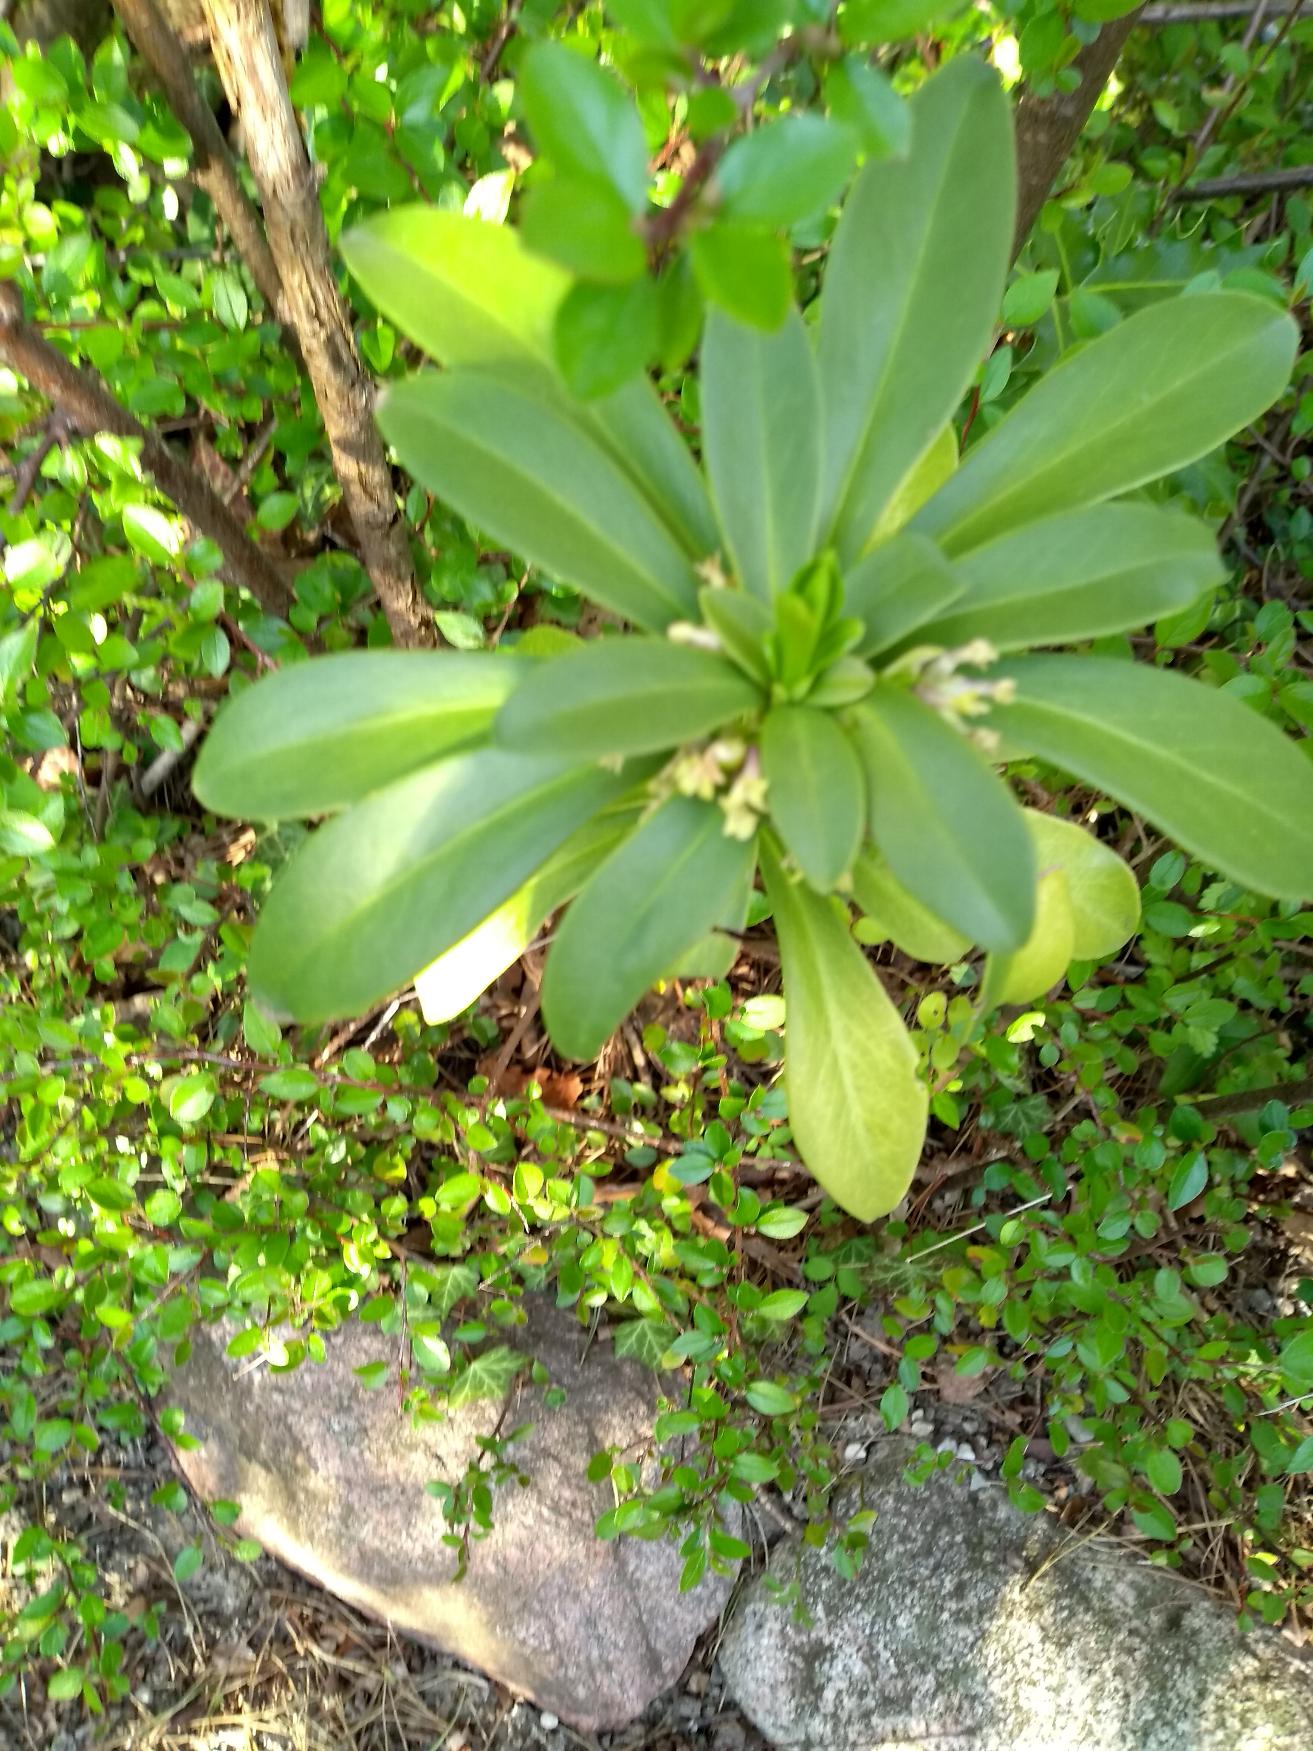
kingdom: Plantae
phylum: Tracheophyta
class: Magnoliopsida
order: Malvales
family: Thymelaeaceae
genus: Daphne
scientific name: Daphne laureola
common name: Laurbær-dafne
